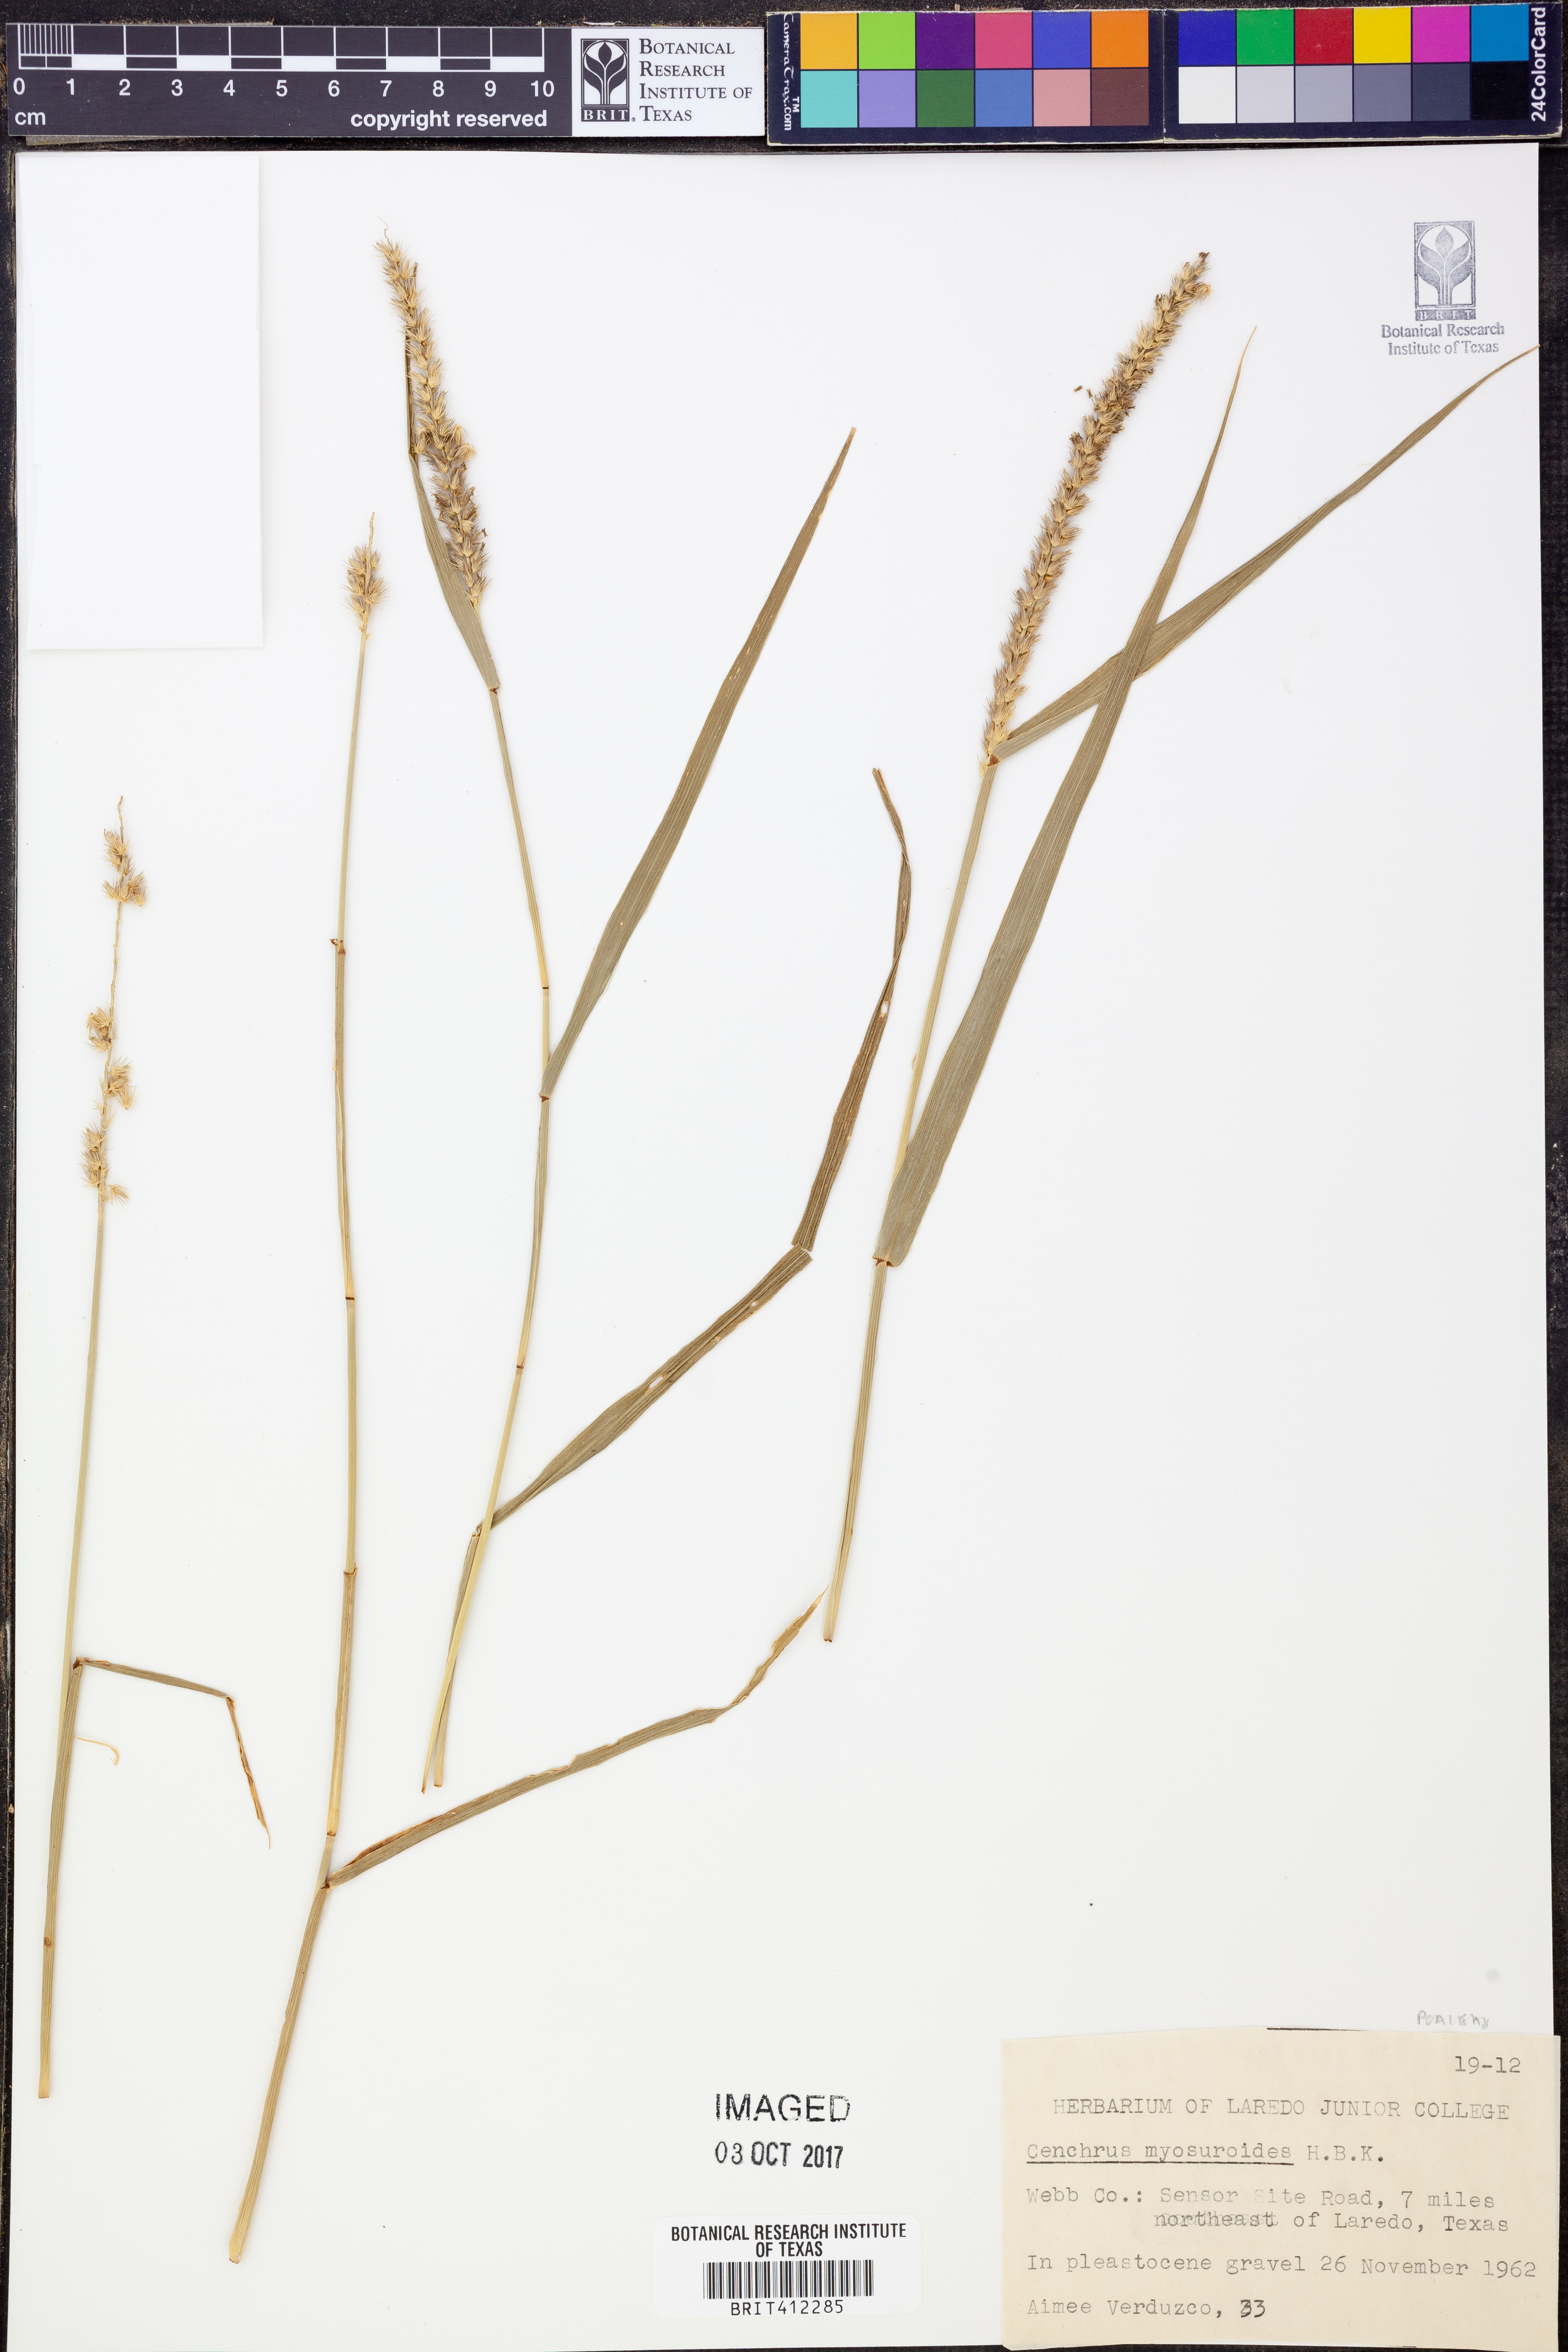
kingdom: Plantae
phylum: Tracheophyta
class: Liliopsida
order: Poales
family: Poaceae
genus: Cenchrus
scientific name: Cenchrus myosuroides
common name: Big sandbur
